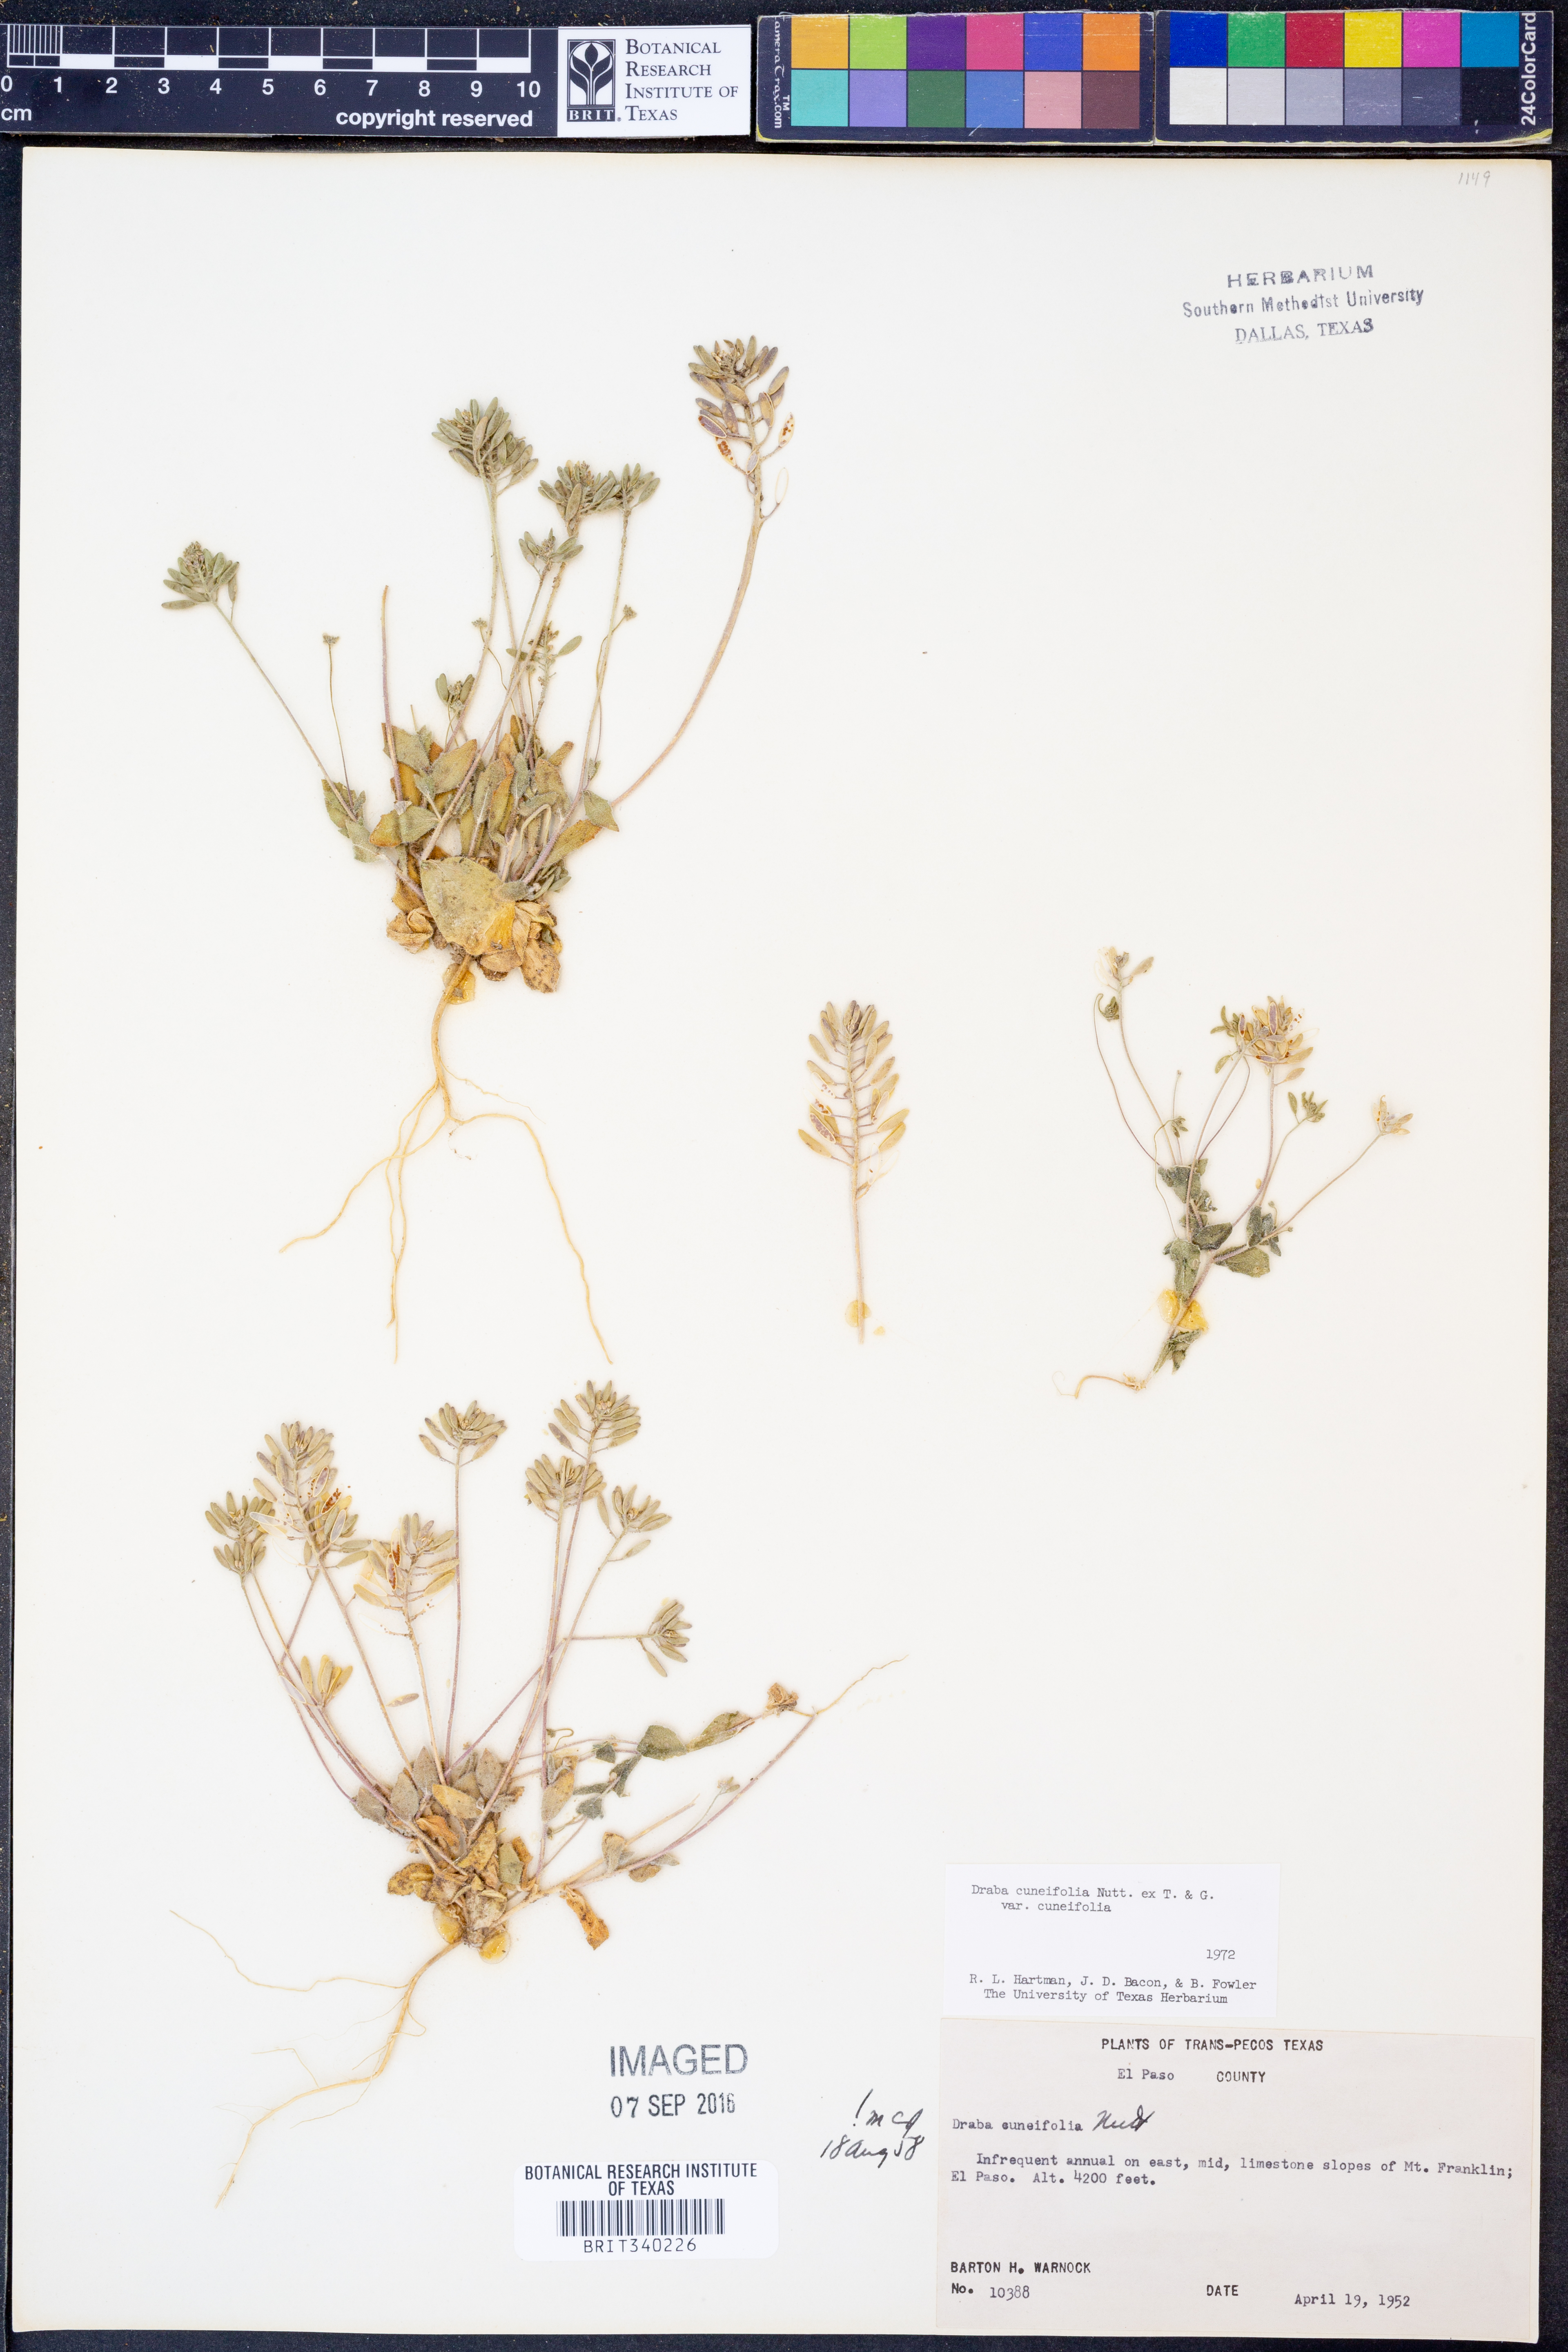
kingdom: Plantae
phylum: Tracheophyta
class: Magnoliopsida
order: Brassicales
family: Brassicaceae
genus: Tomostima
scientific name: Tomostima cuneifolia
